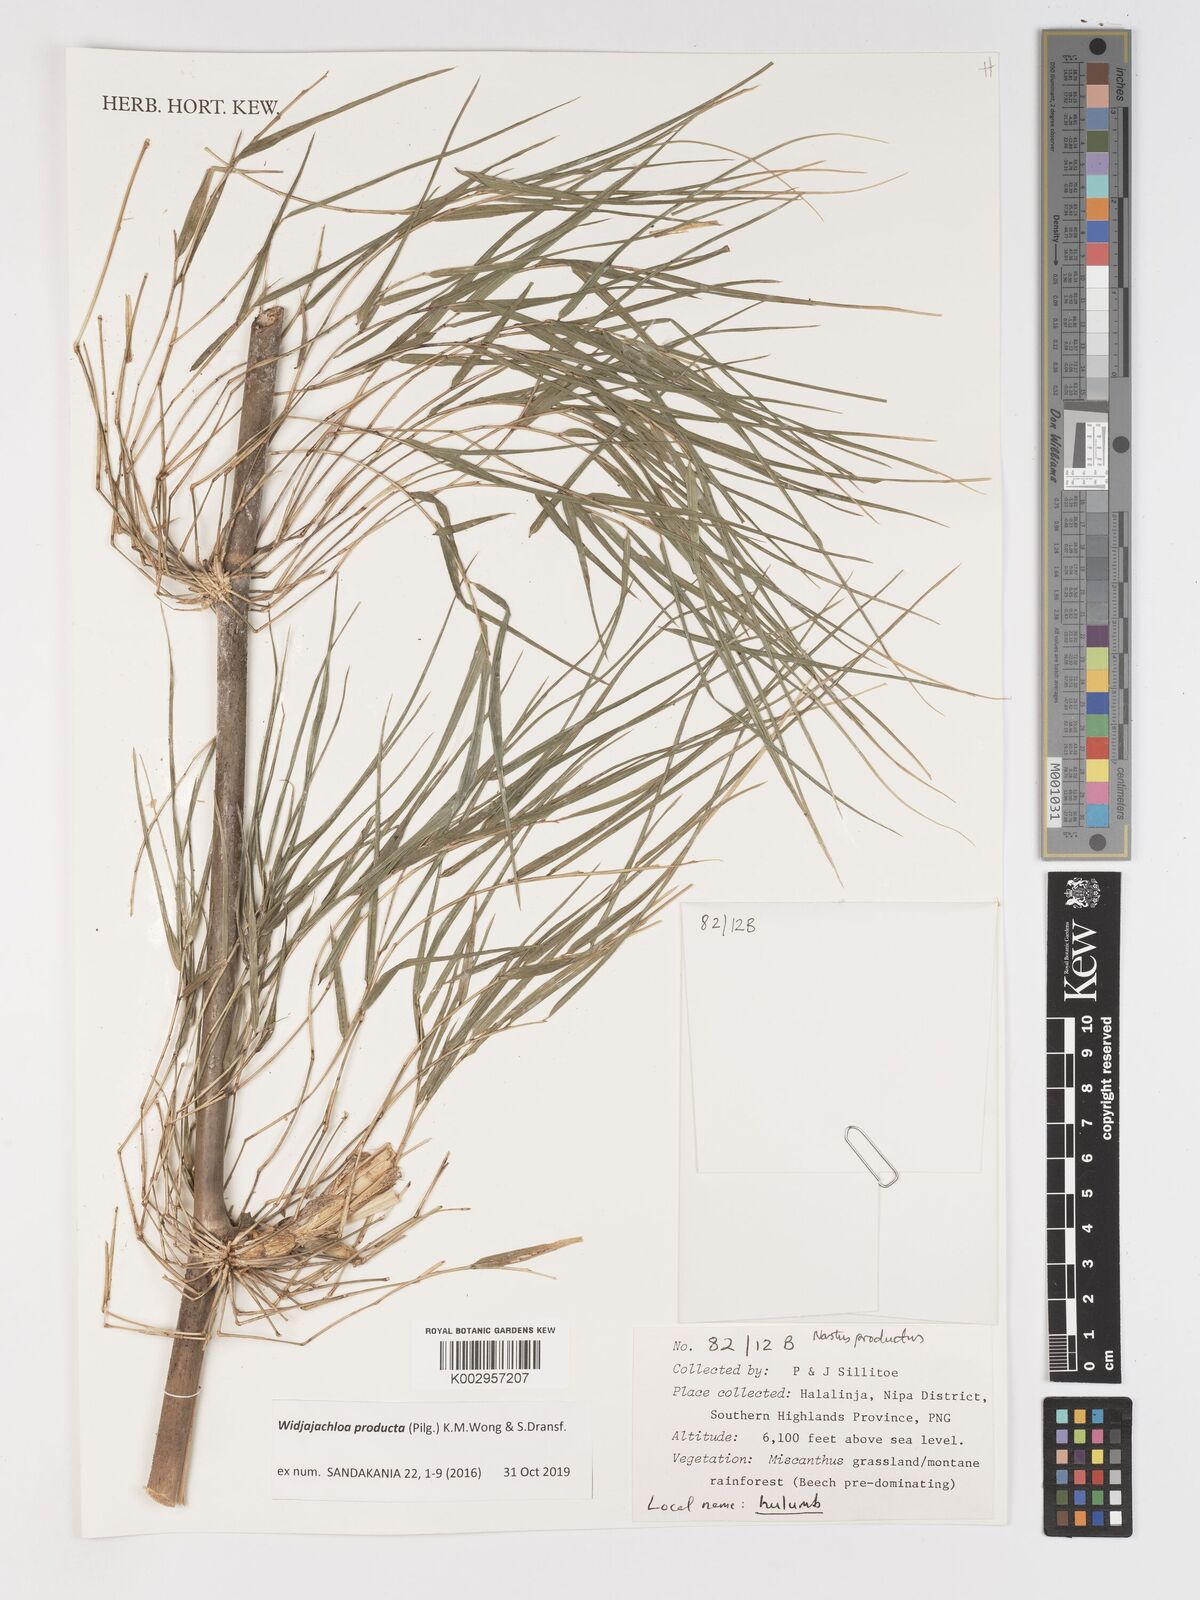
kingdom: Plantae
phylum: Tracheophyta
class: Liliopsida
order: Poales
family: Poaceae
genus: Widjajachloa
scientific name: Widjajachloa
